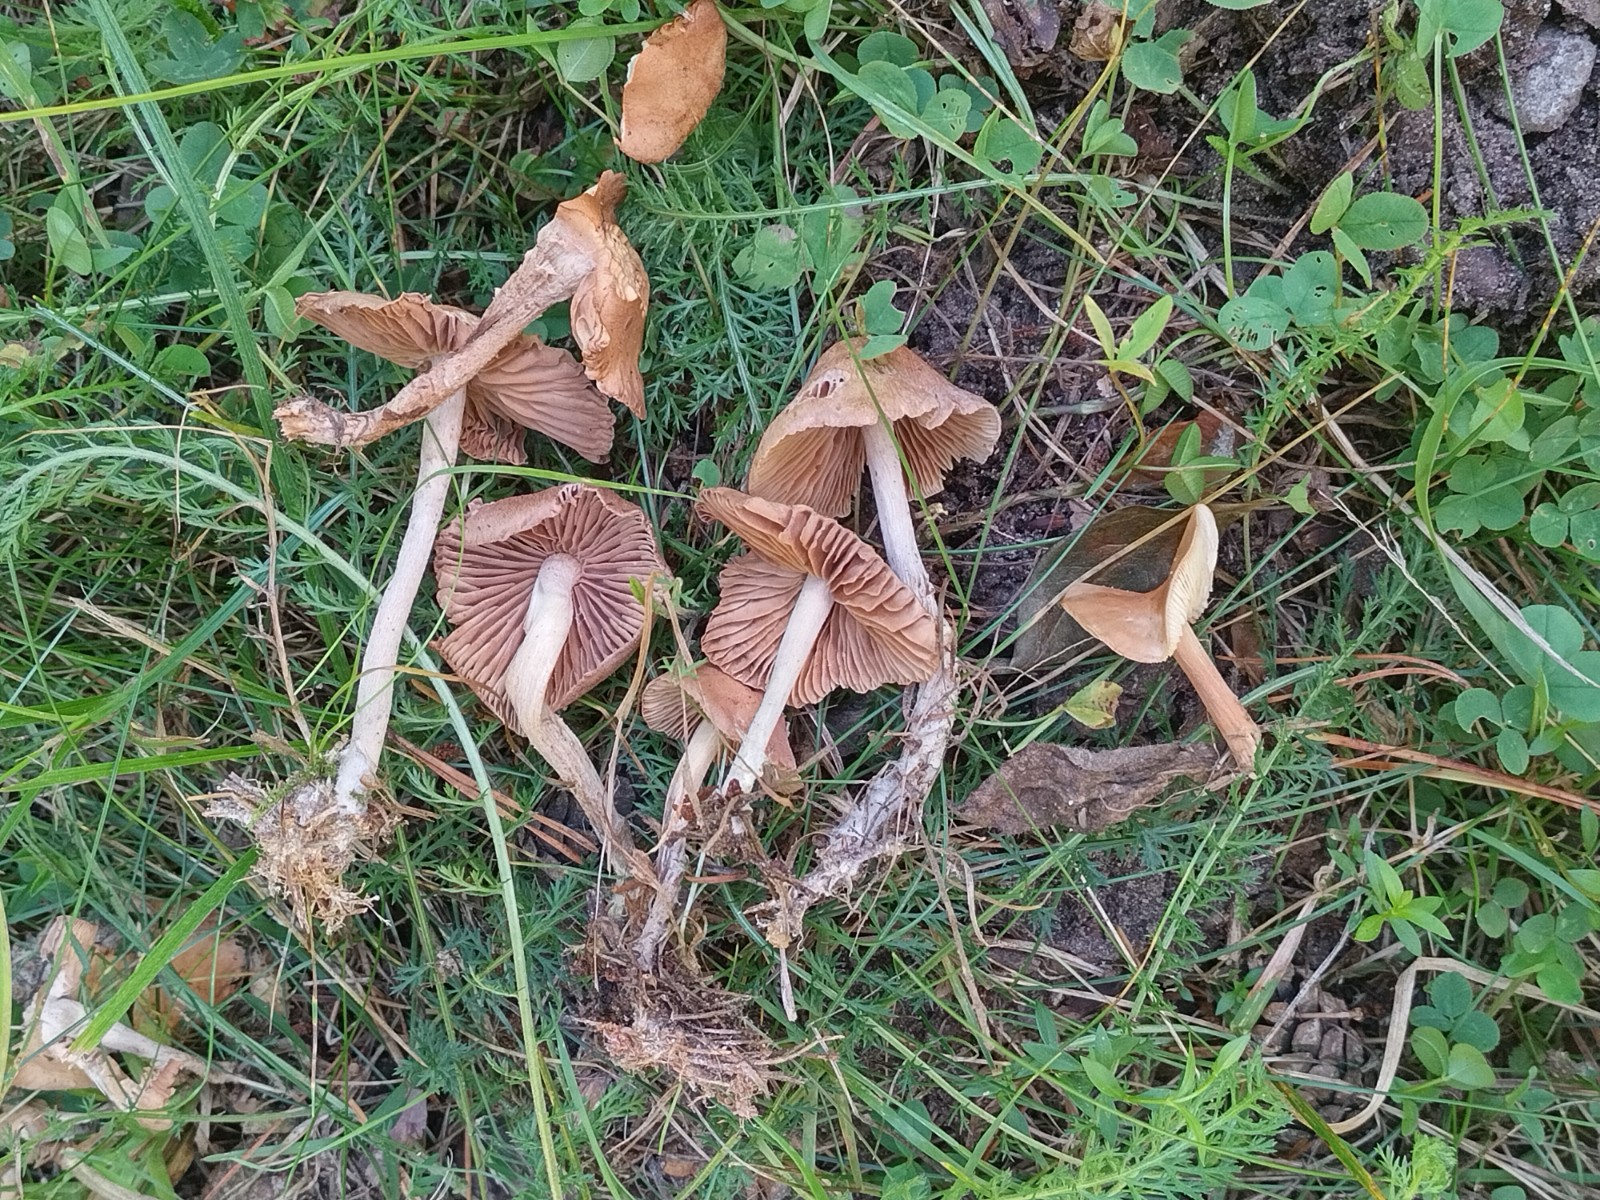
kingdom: Fungi
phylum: Basidiomycota
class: Agaricomycetes
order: Agaricales
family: Omphalotaceae
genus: Collybiopsis
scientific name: Collybiopsis peronata
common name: bestøvlet fladhat
